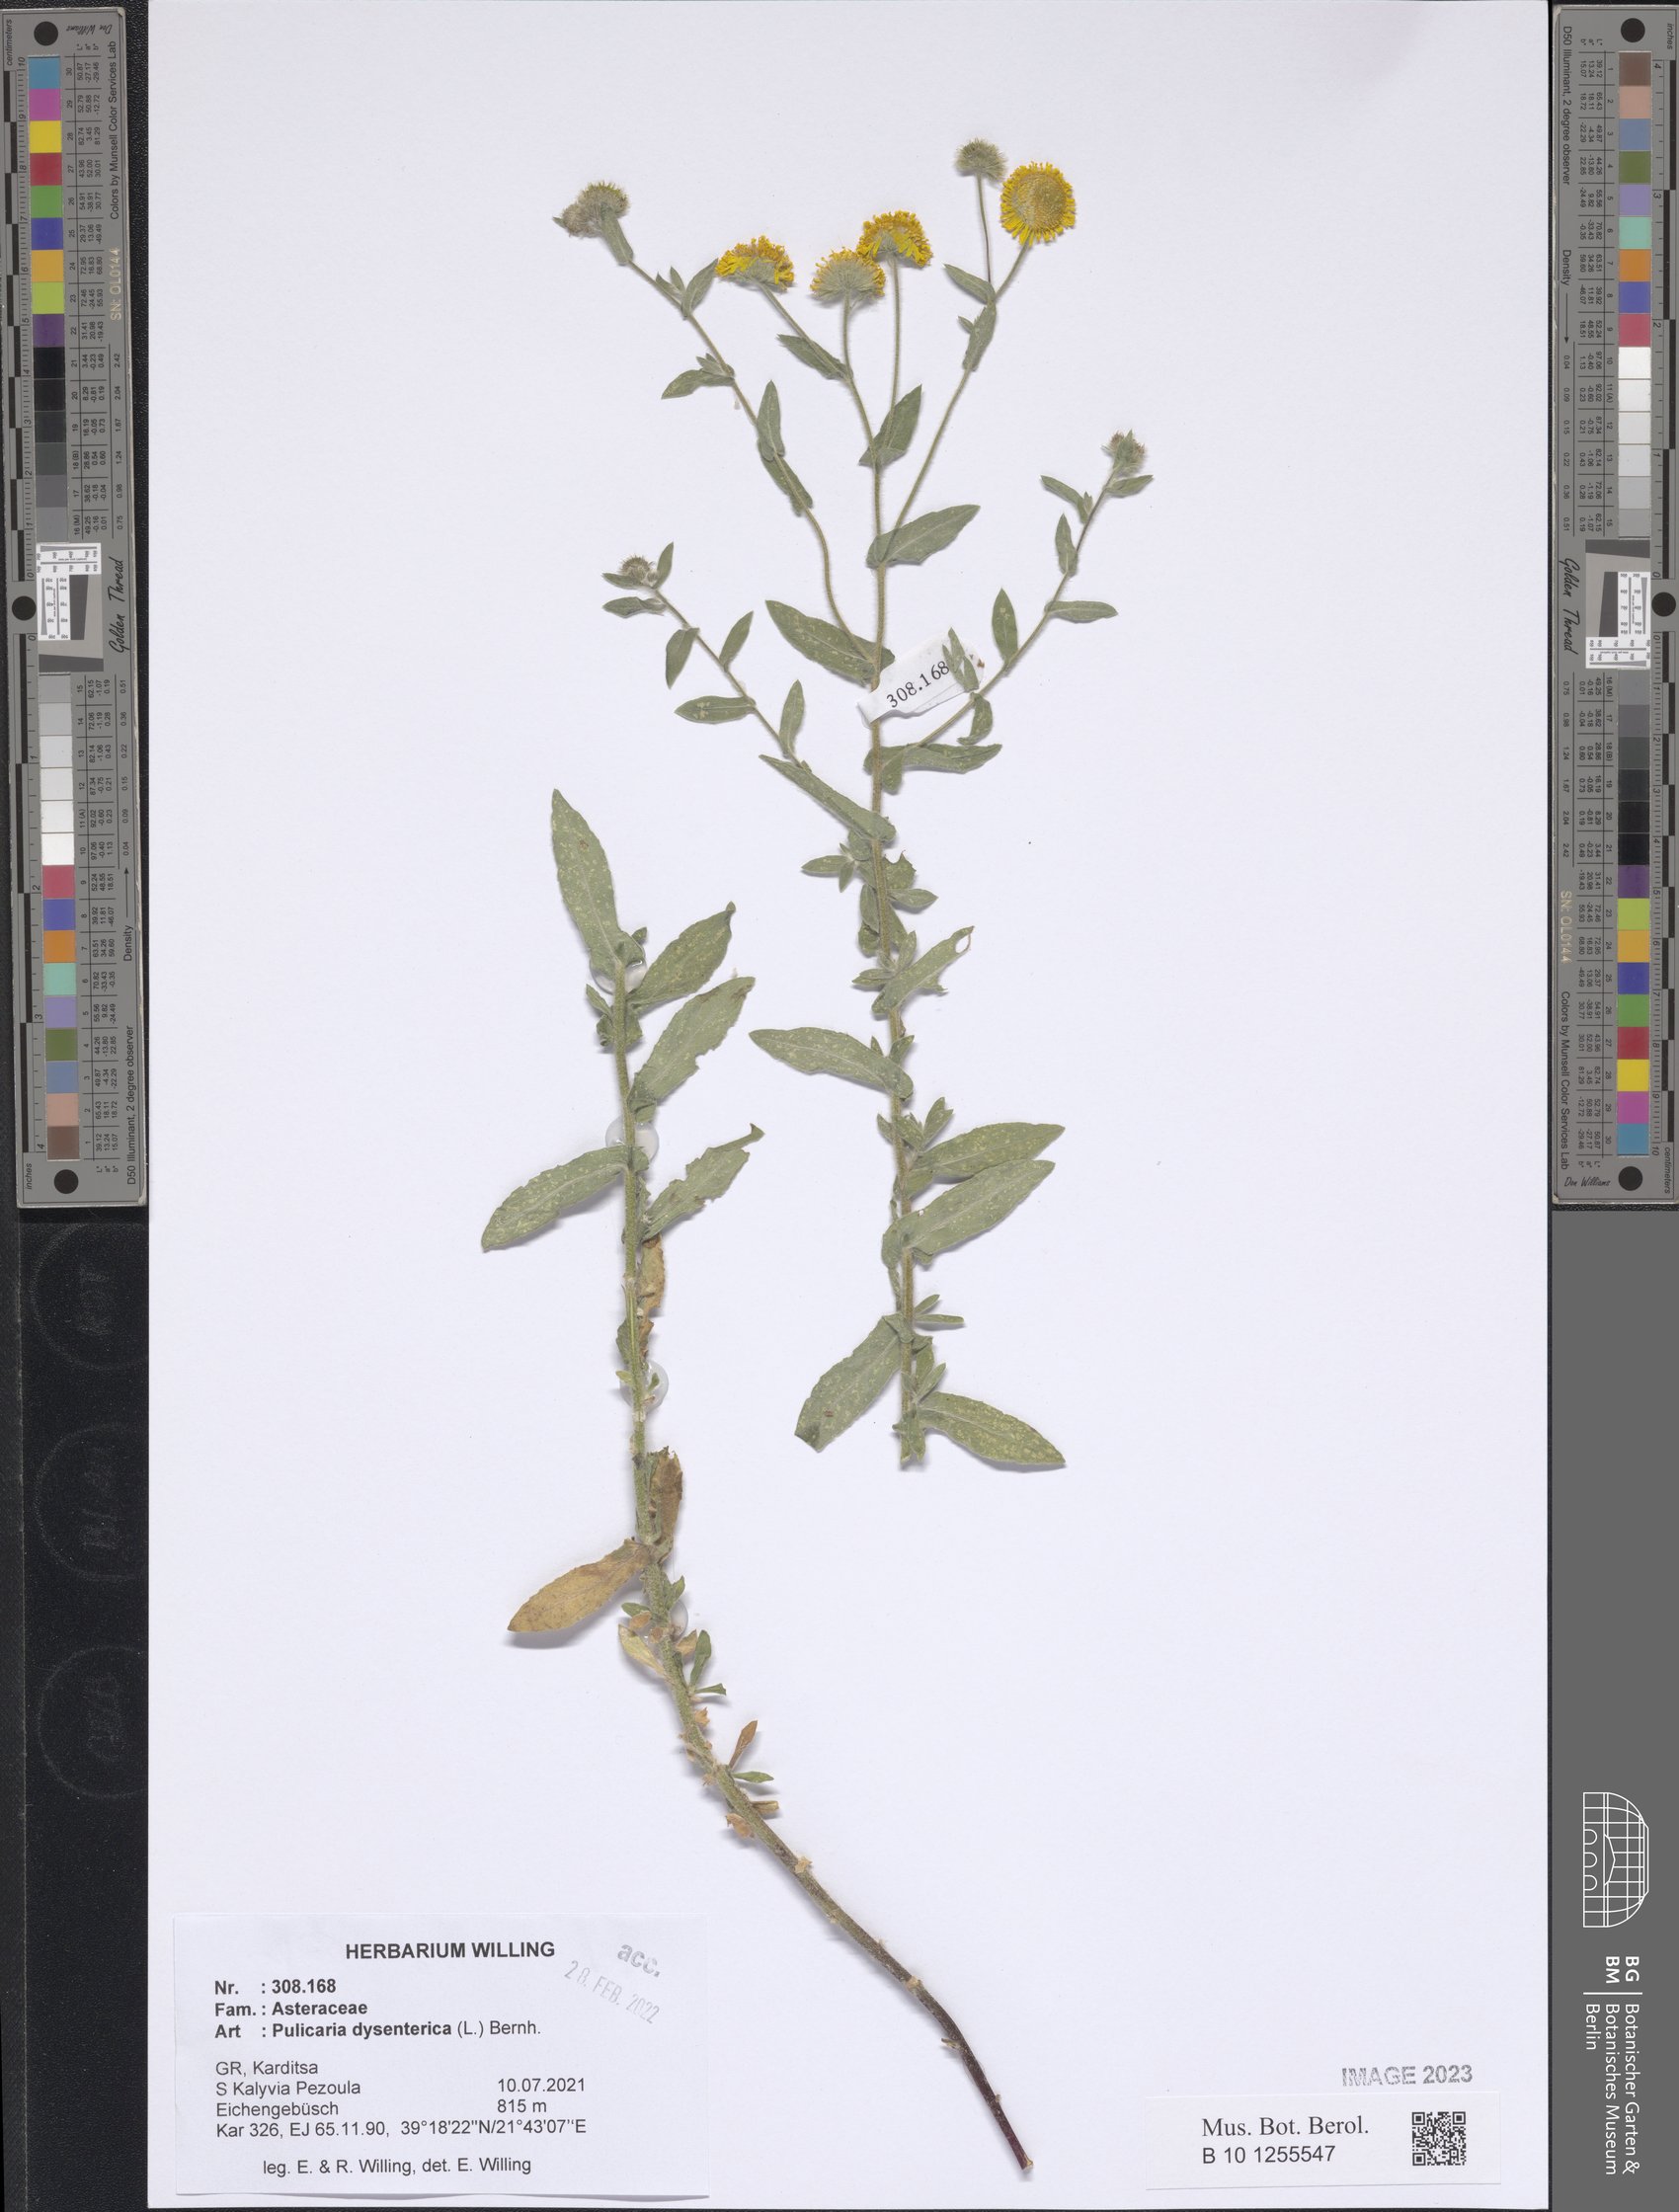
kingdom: Plantae
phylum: Tracheophyta
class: Magnoliopsida
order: Asterales
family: Asteraceae
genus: Pulicaria
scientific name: Pulicaria dysenterica
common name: Common fleabane
